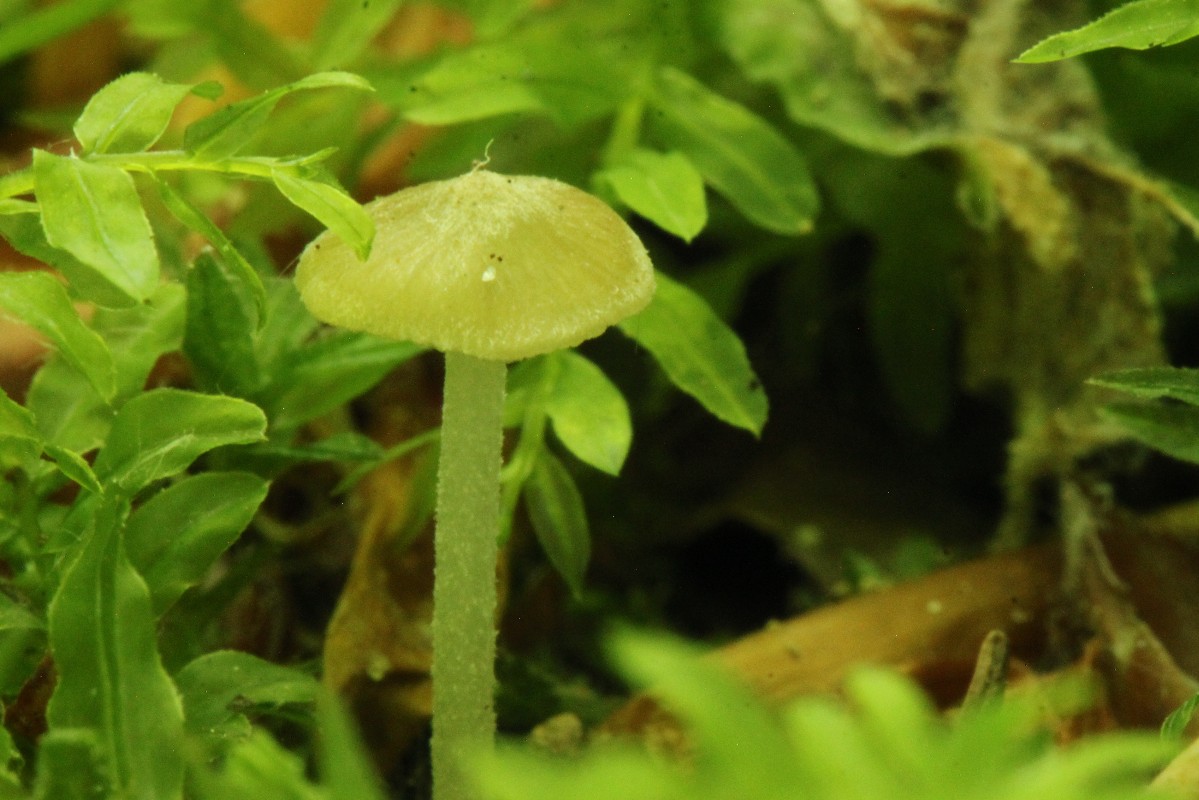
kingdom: Fungi
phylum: Basidiomycota
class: Agaricomycetes
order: Agaricales
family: Porotheleaceae
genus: Hydropodia
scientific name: Hydropodia subalpina
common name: vår-fnugfod
